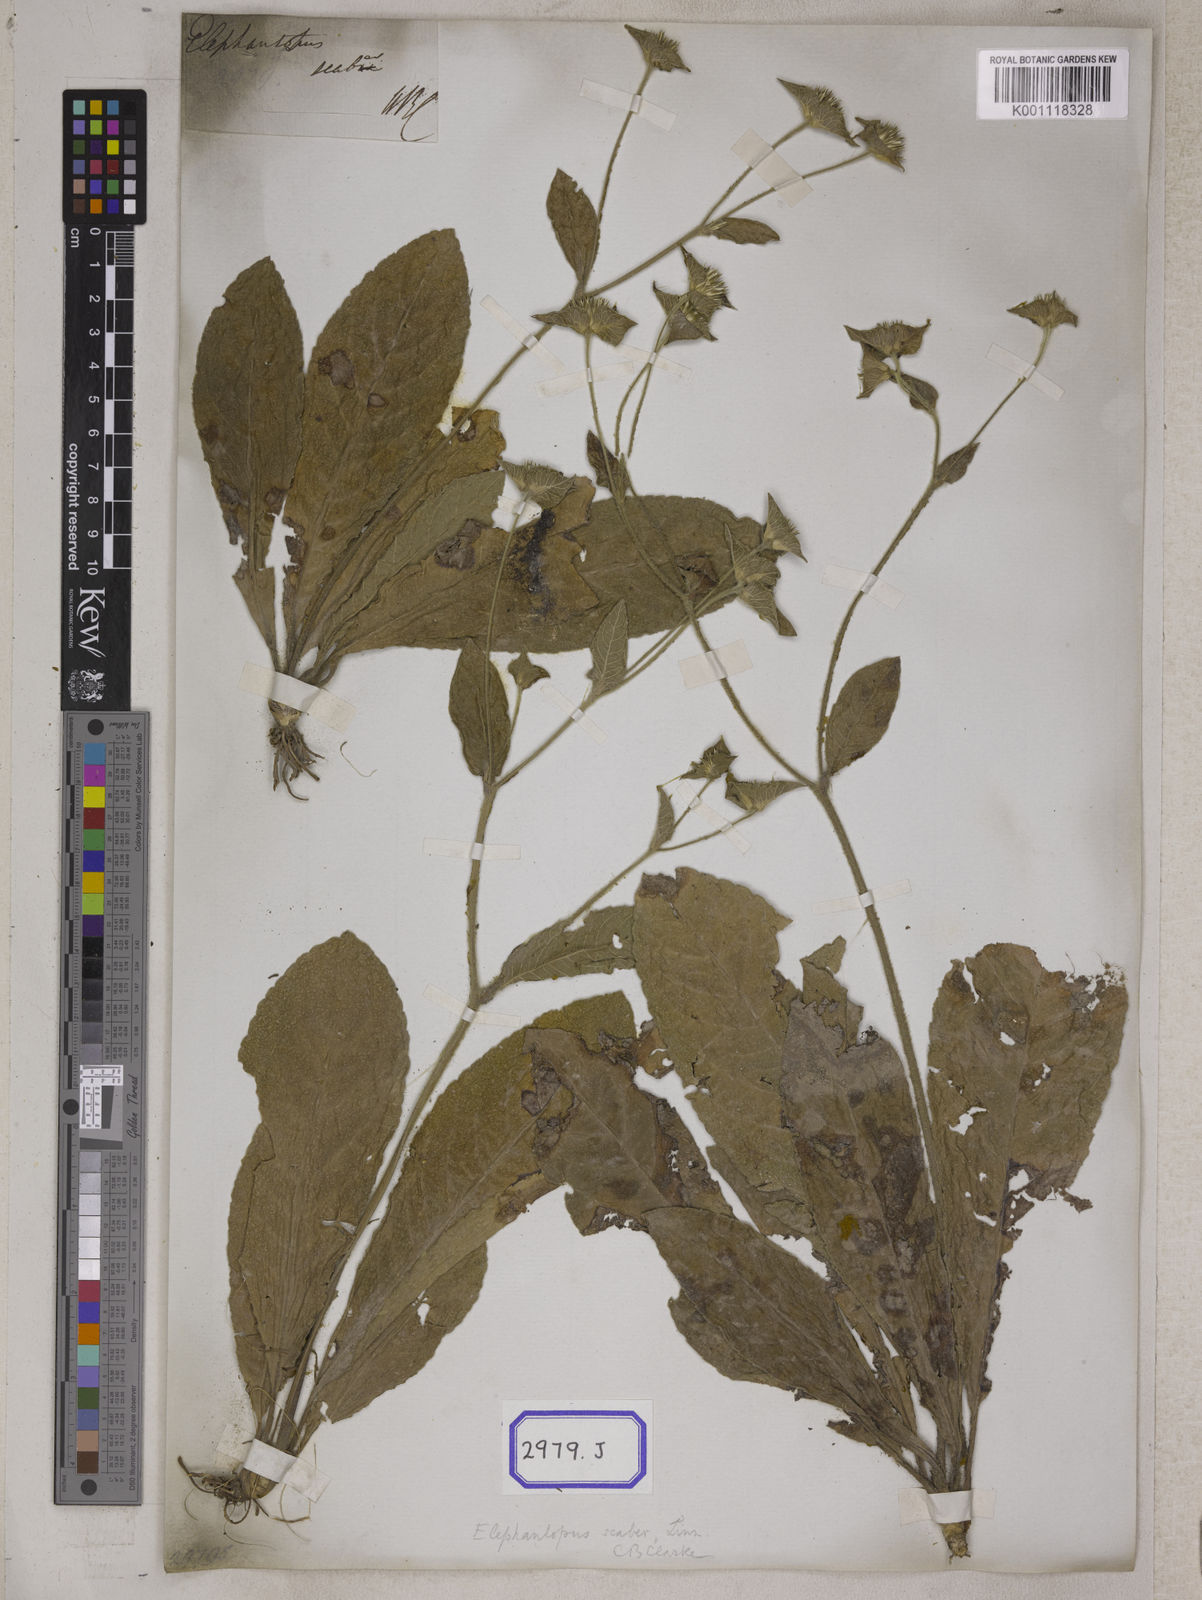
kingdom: Plantae
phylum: Tracheophyta
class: Magnoliopsida
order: Asterales
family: Asteraceae
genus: Elephantopus
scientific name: Elephantopus scaber
